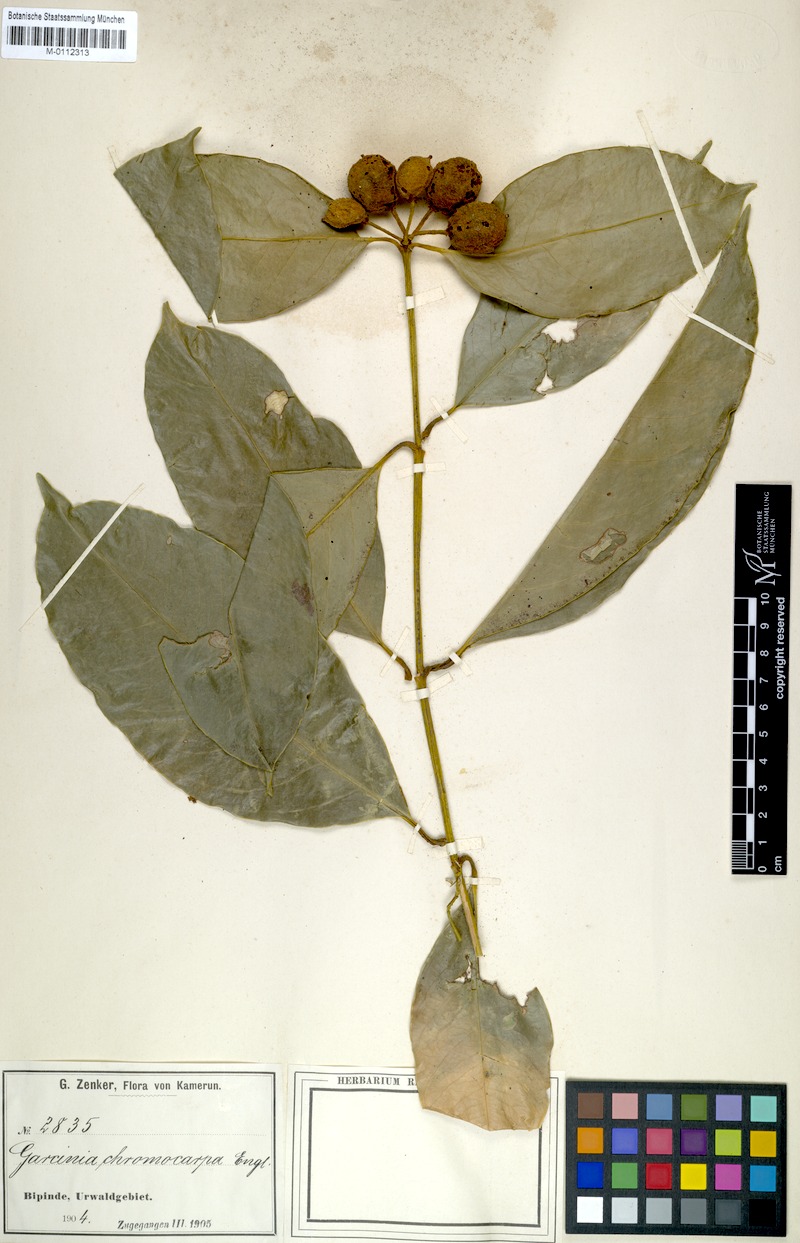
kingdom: Plantae
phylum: Tracheophyta
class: Magnoliopsida
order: Malpighiales
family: Clusiaceae
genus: Garcinia
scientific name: Garcinia quadrifaria
